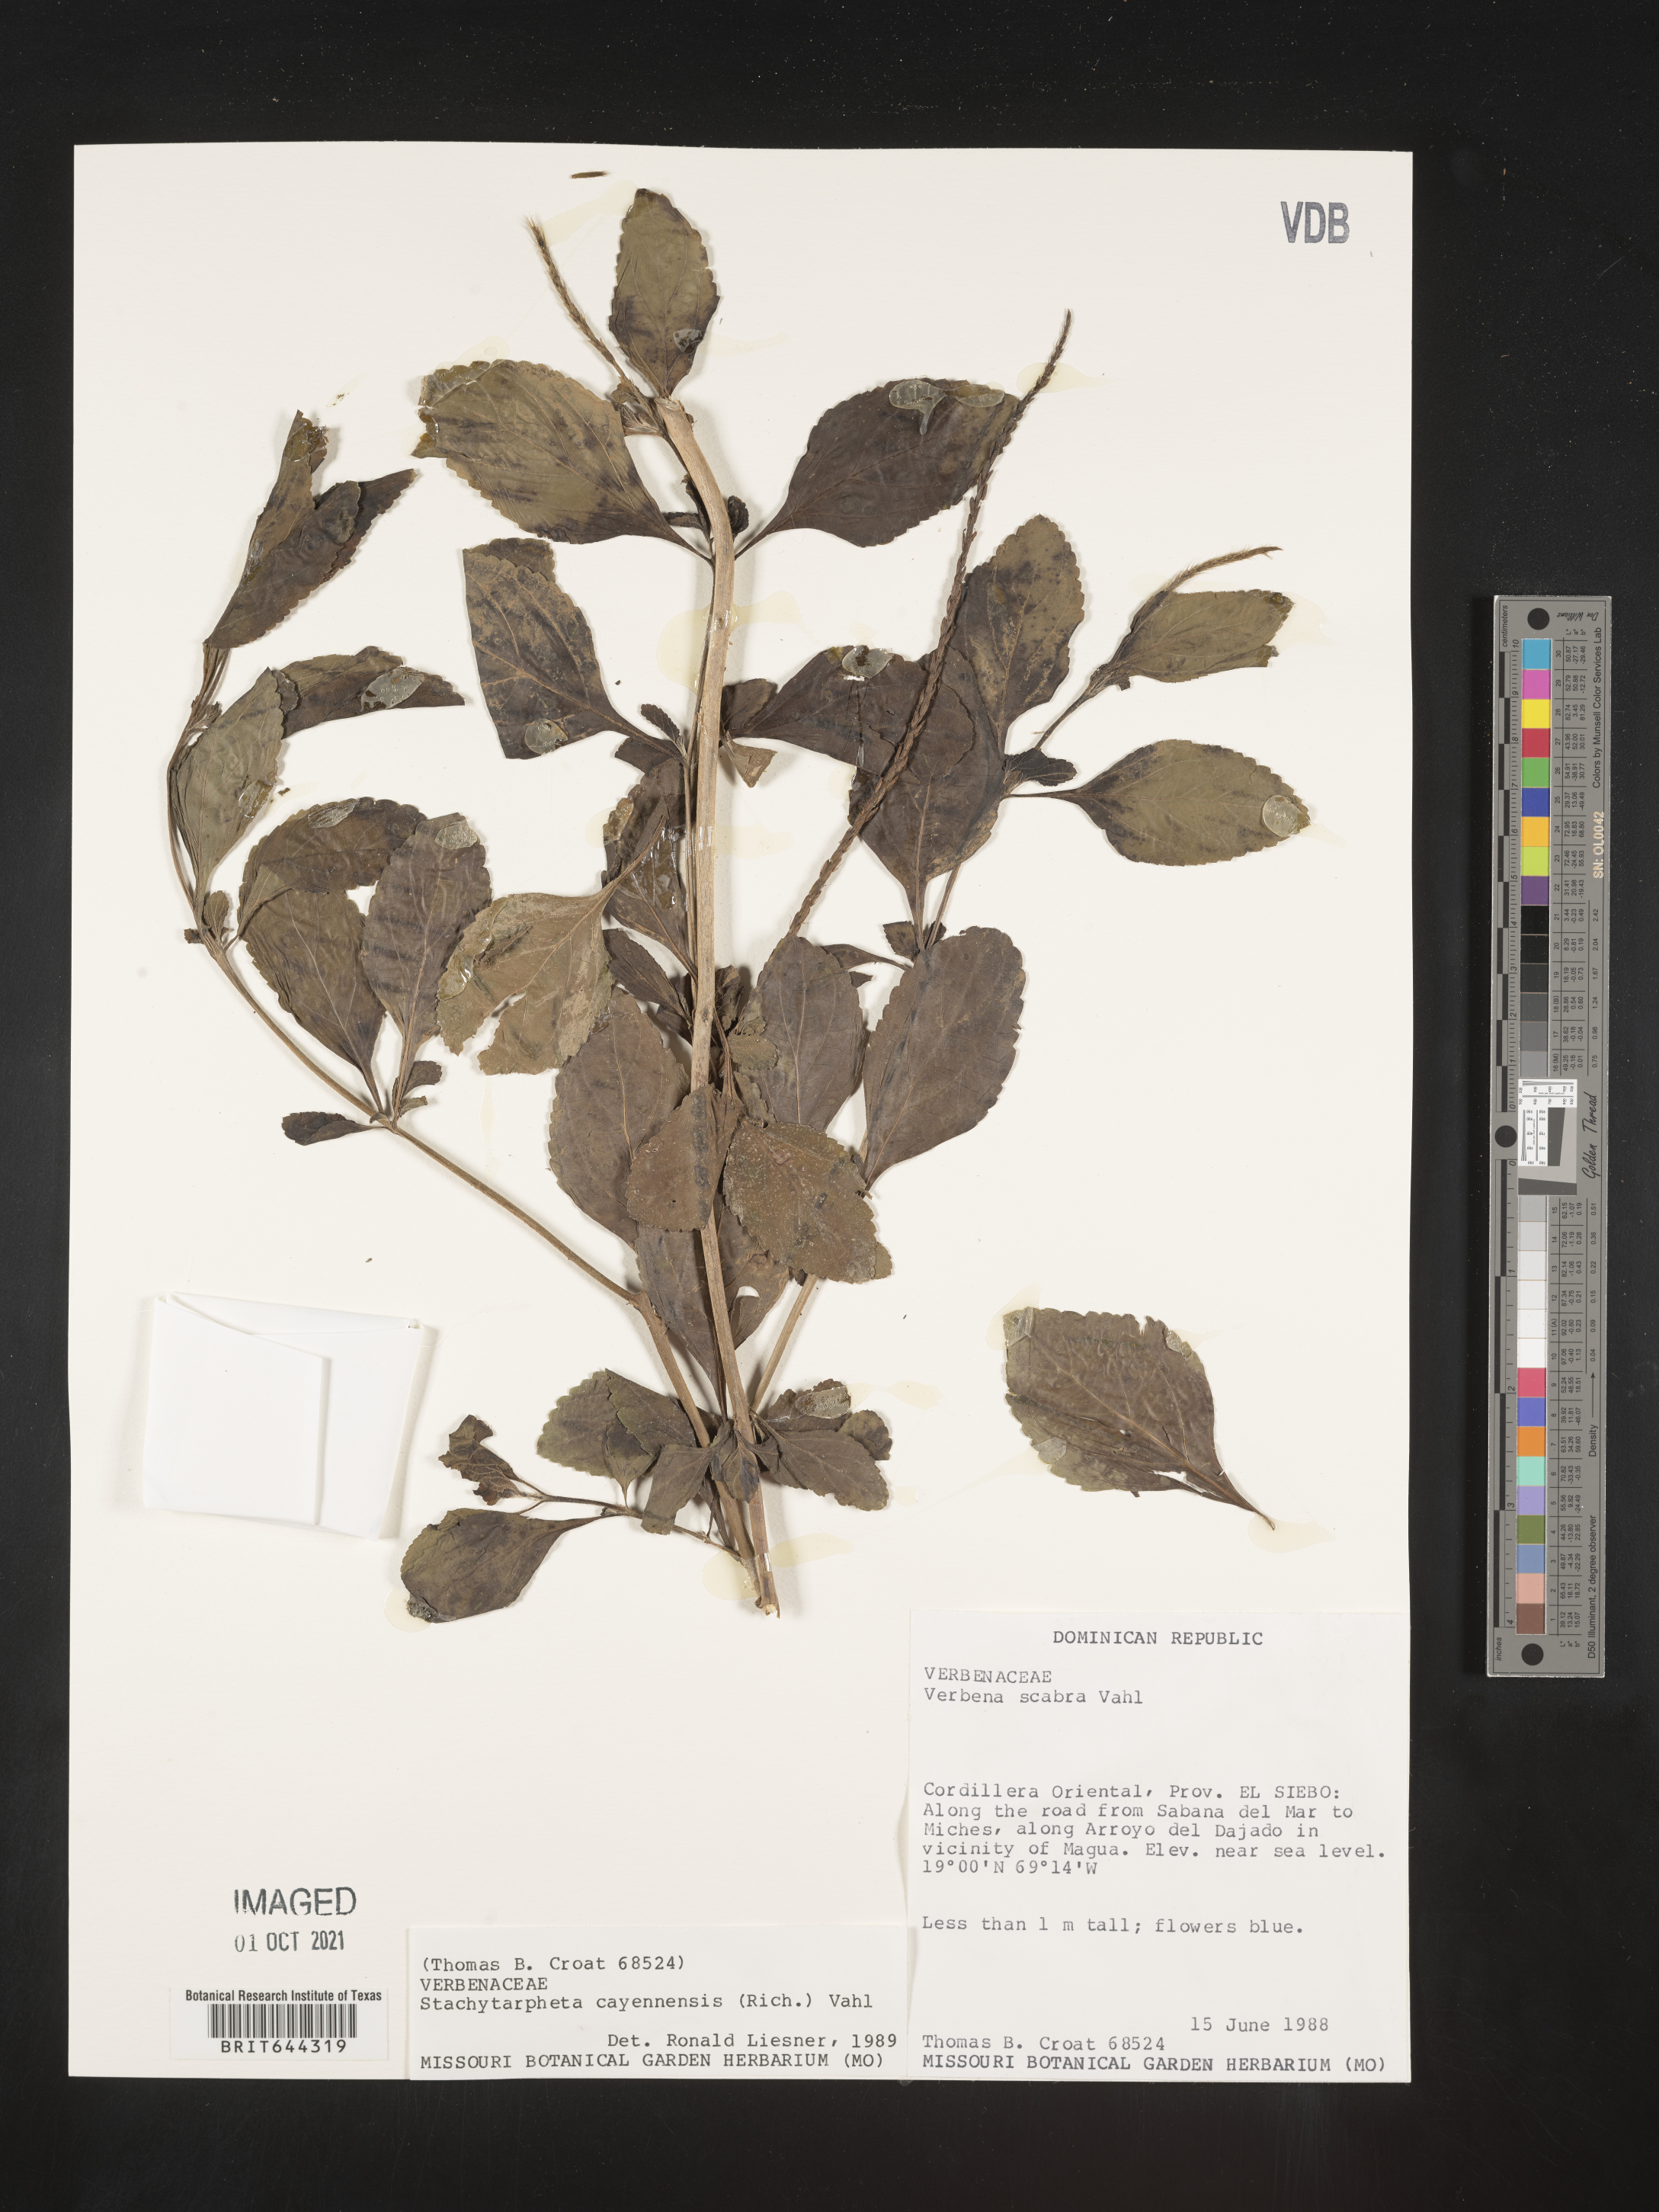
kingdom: Plantae
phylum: Tracheophyta
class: Magnoliopsida
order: Lamiales
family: Verbenaceae
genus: Stachytarpheta
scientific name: Stachytarpheta
